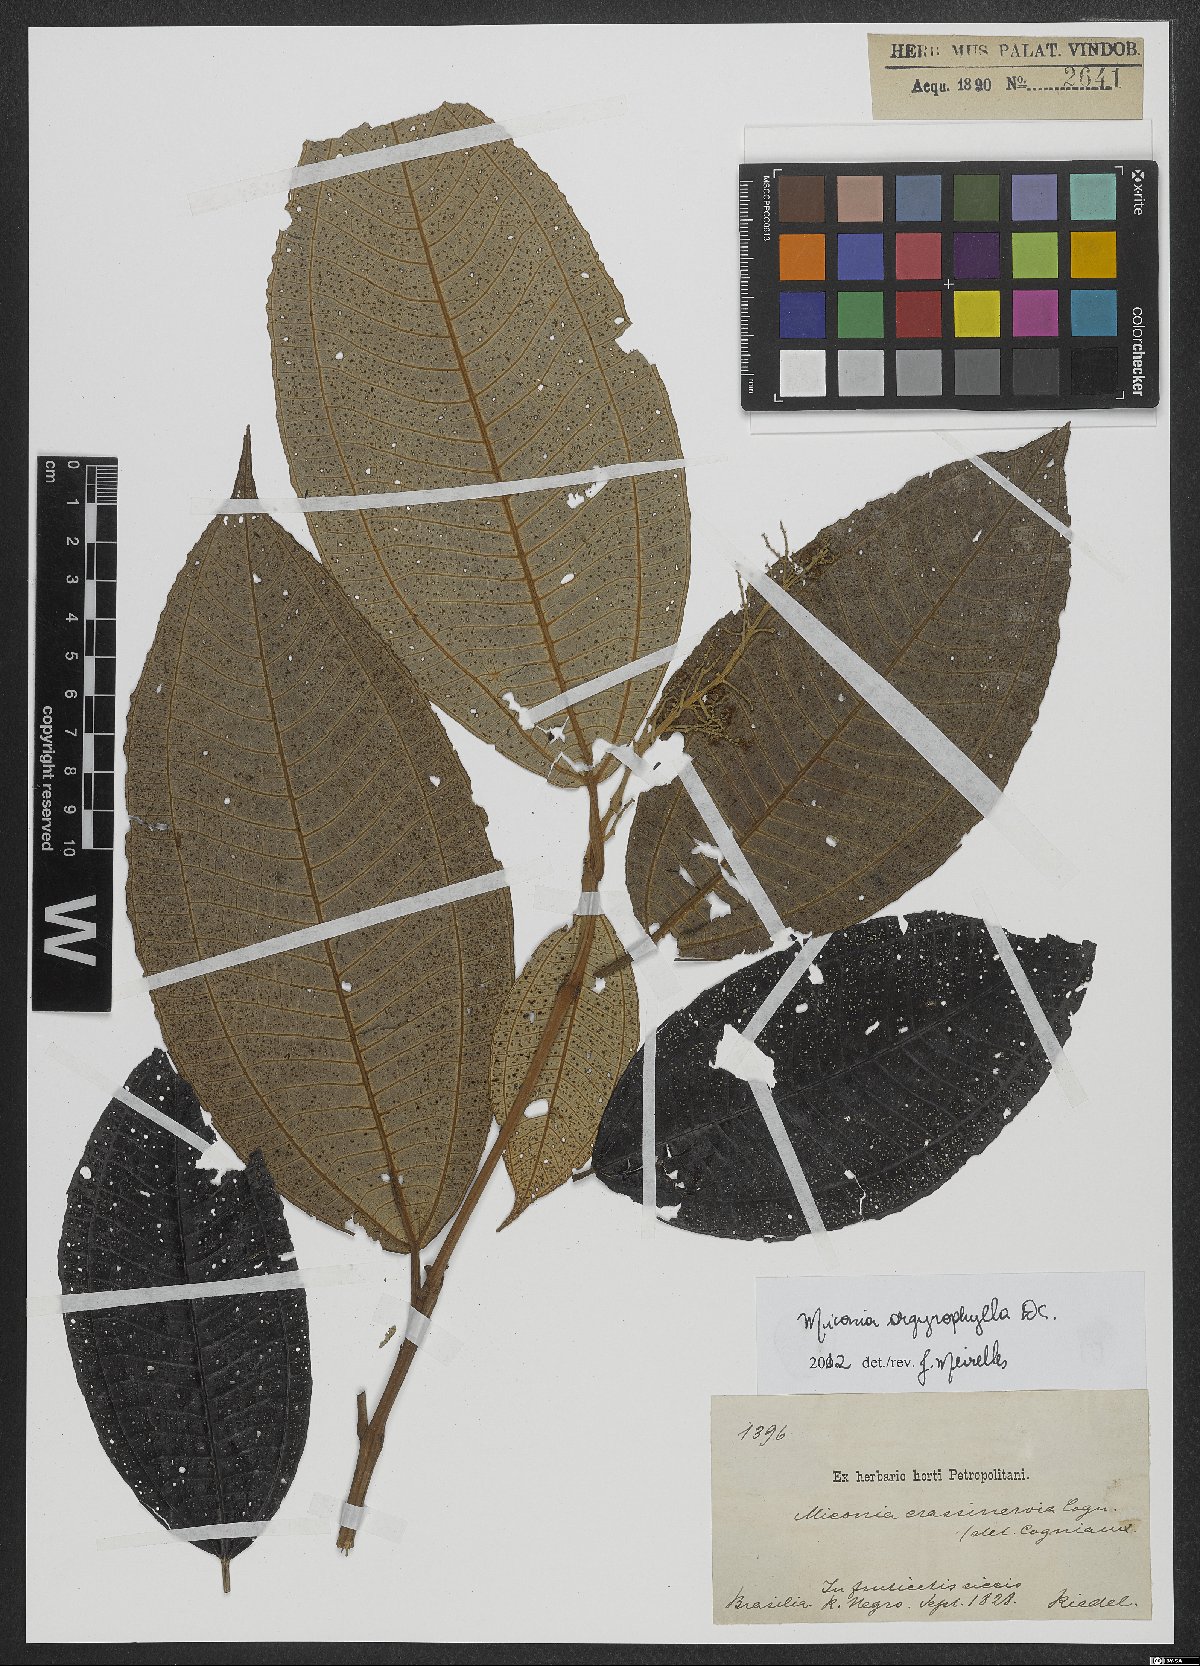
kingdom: Plantae
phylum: Tracheophyta
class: Magnoliopsida
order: Myrtales
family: Melastomataceae
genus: Miconia
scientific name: Miconia argyrophylla
